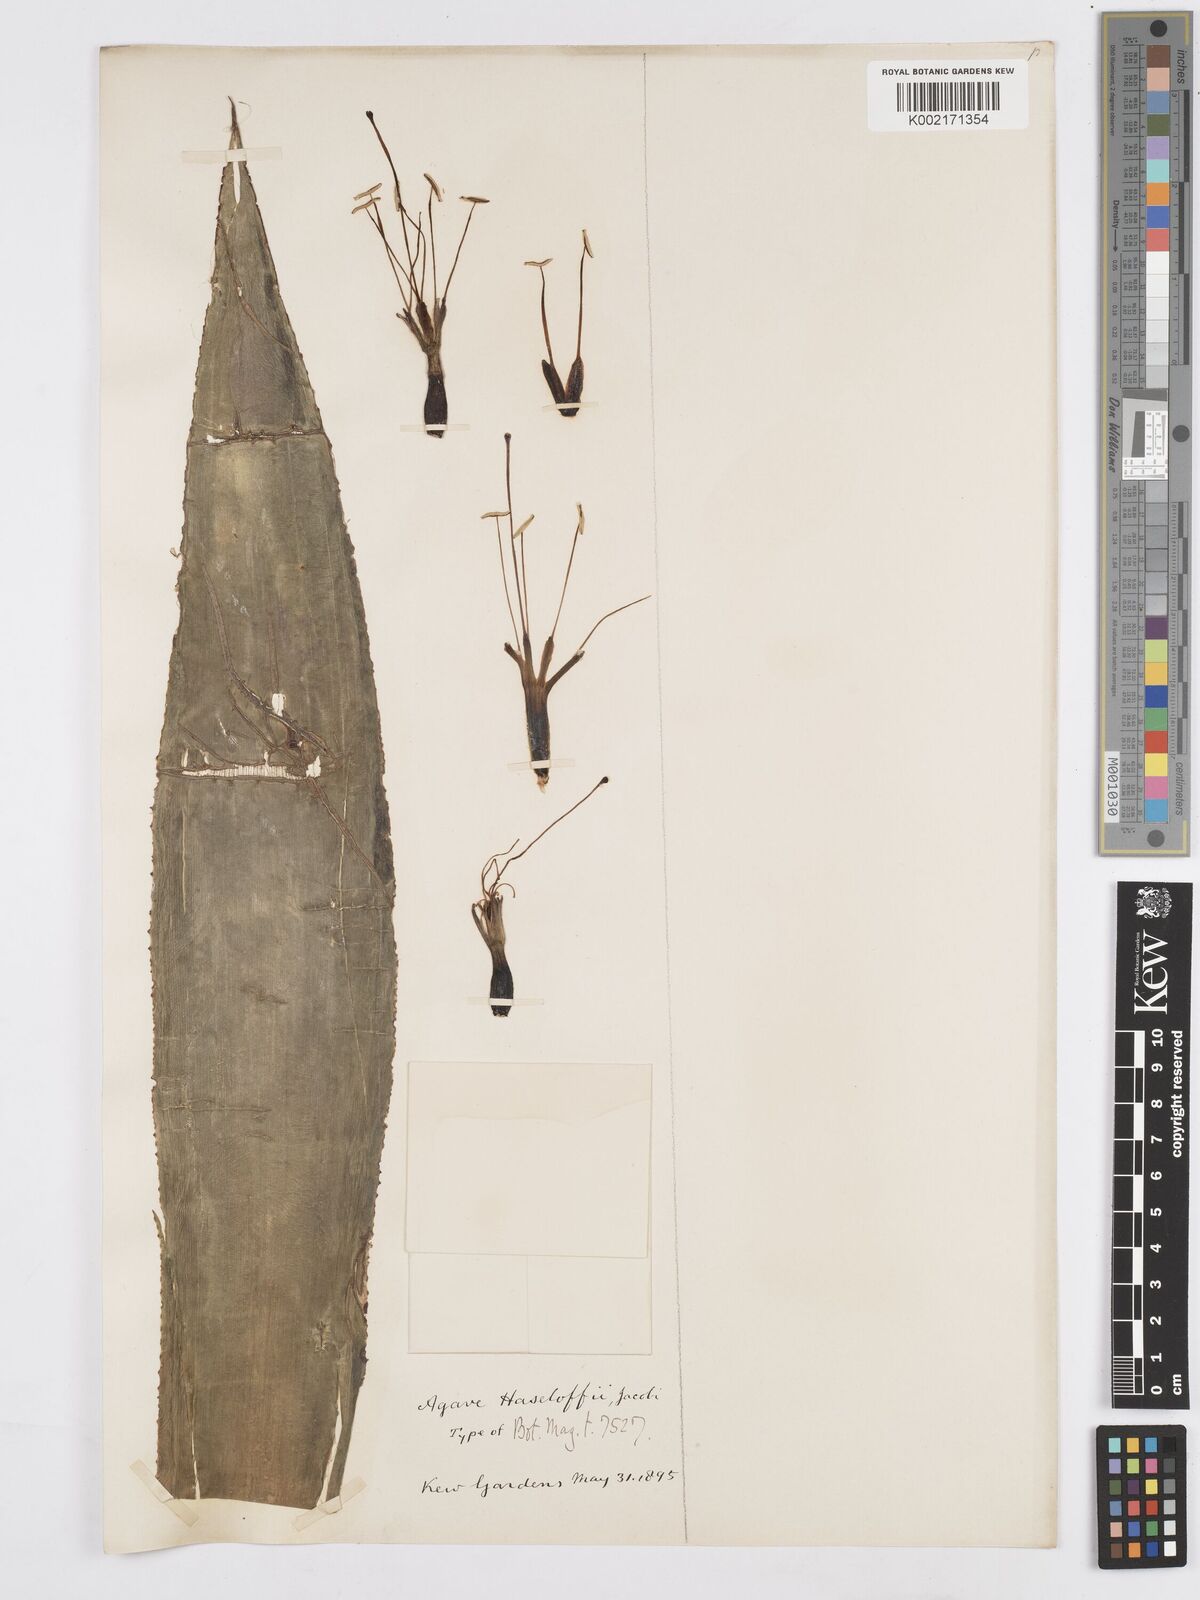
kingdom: Plantae
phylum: Tracheophyta
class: Liliopsida
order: Asparagales
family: Asparagaceae
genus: Agave
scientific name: Agave mitis
